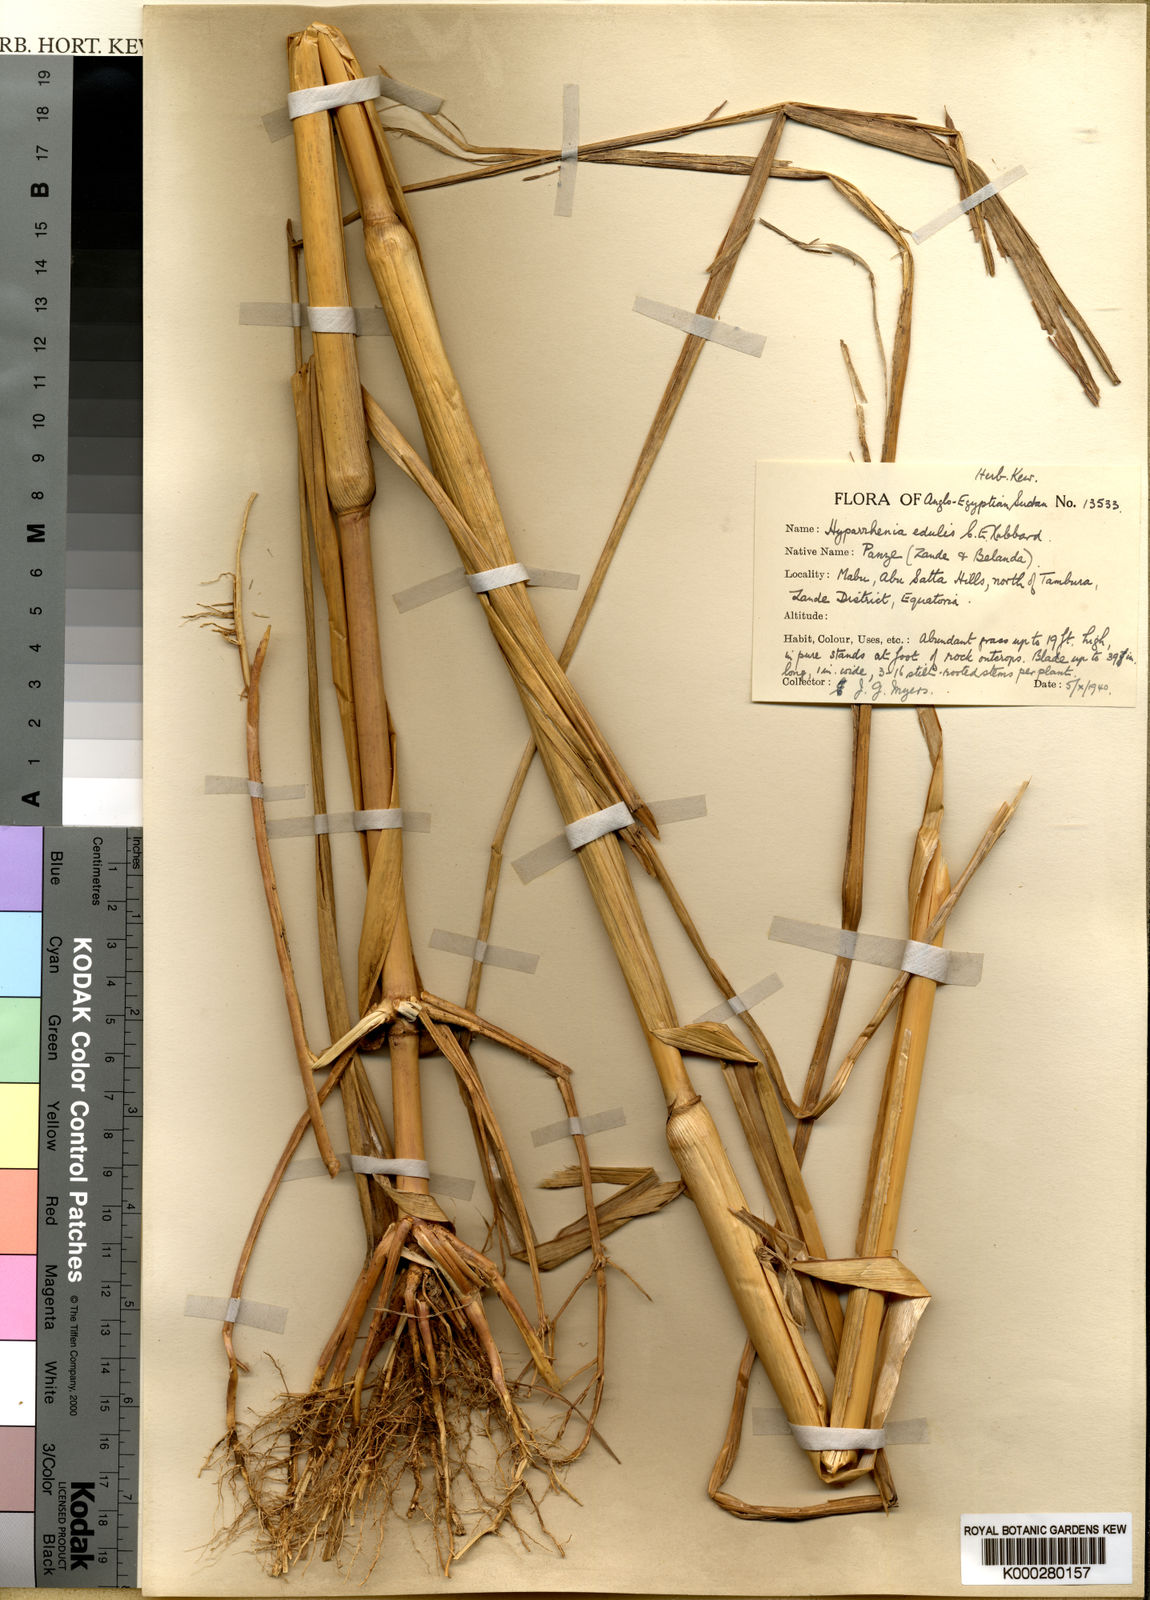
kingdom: Plantae
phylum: Tracheophyta
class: Liliopsida
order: Poales
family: Poaceae
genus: Hyperthelia
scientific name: Hyperthelia edulis
